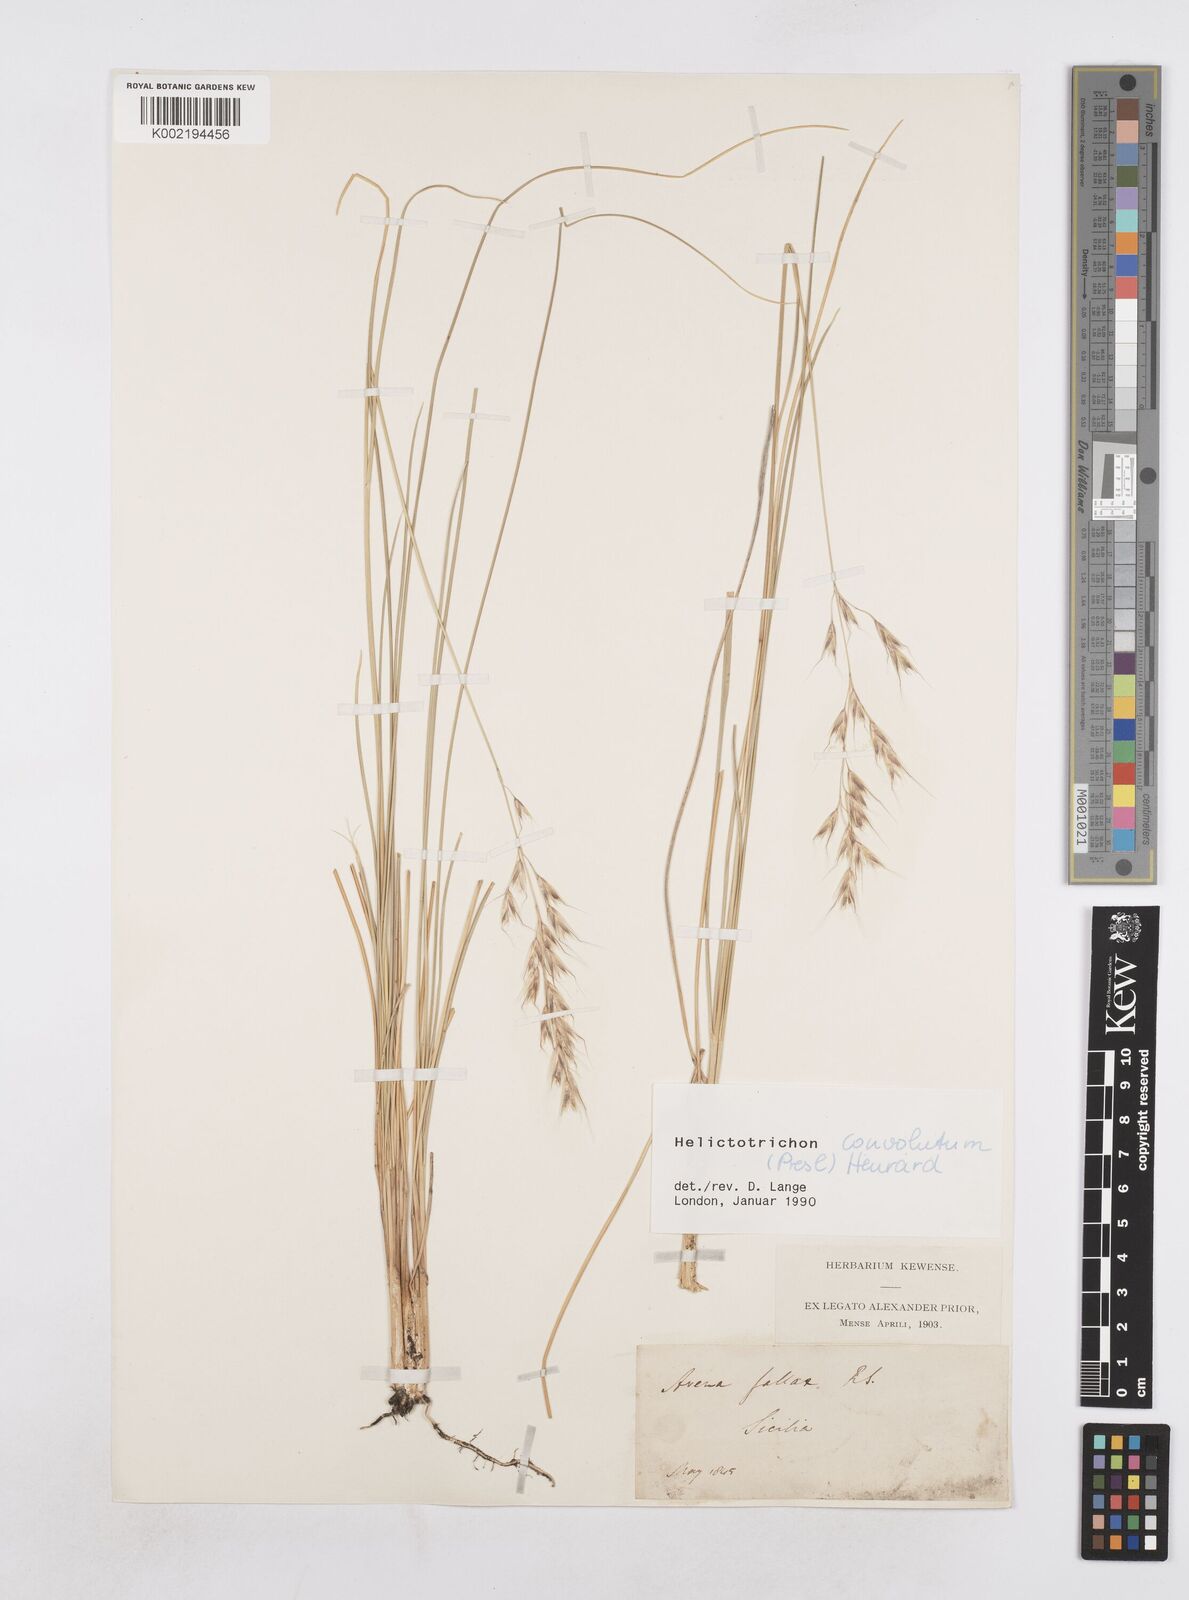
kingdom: Plantae
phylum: Tracheophyta
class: Liliopsida
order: Poales
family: Poaceae
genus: Helictotrichon
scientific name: Helictotrichon convolutum
